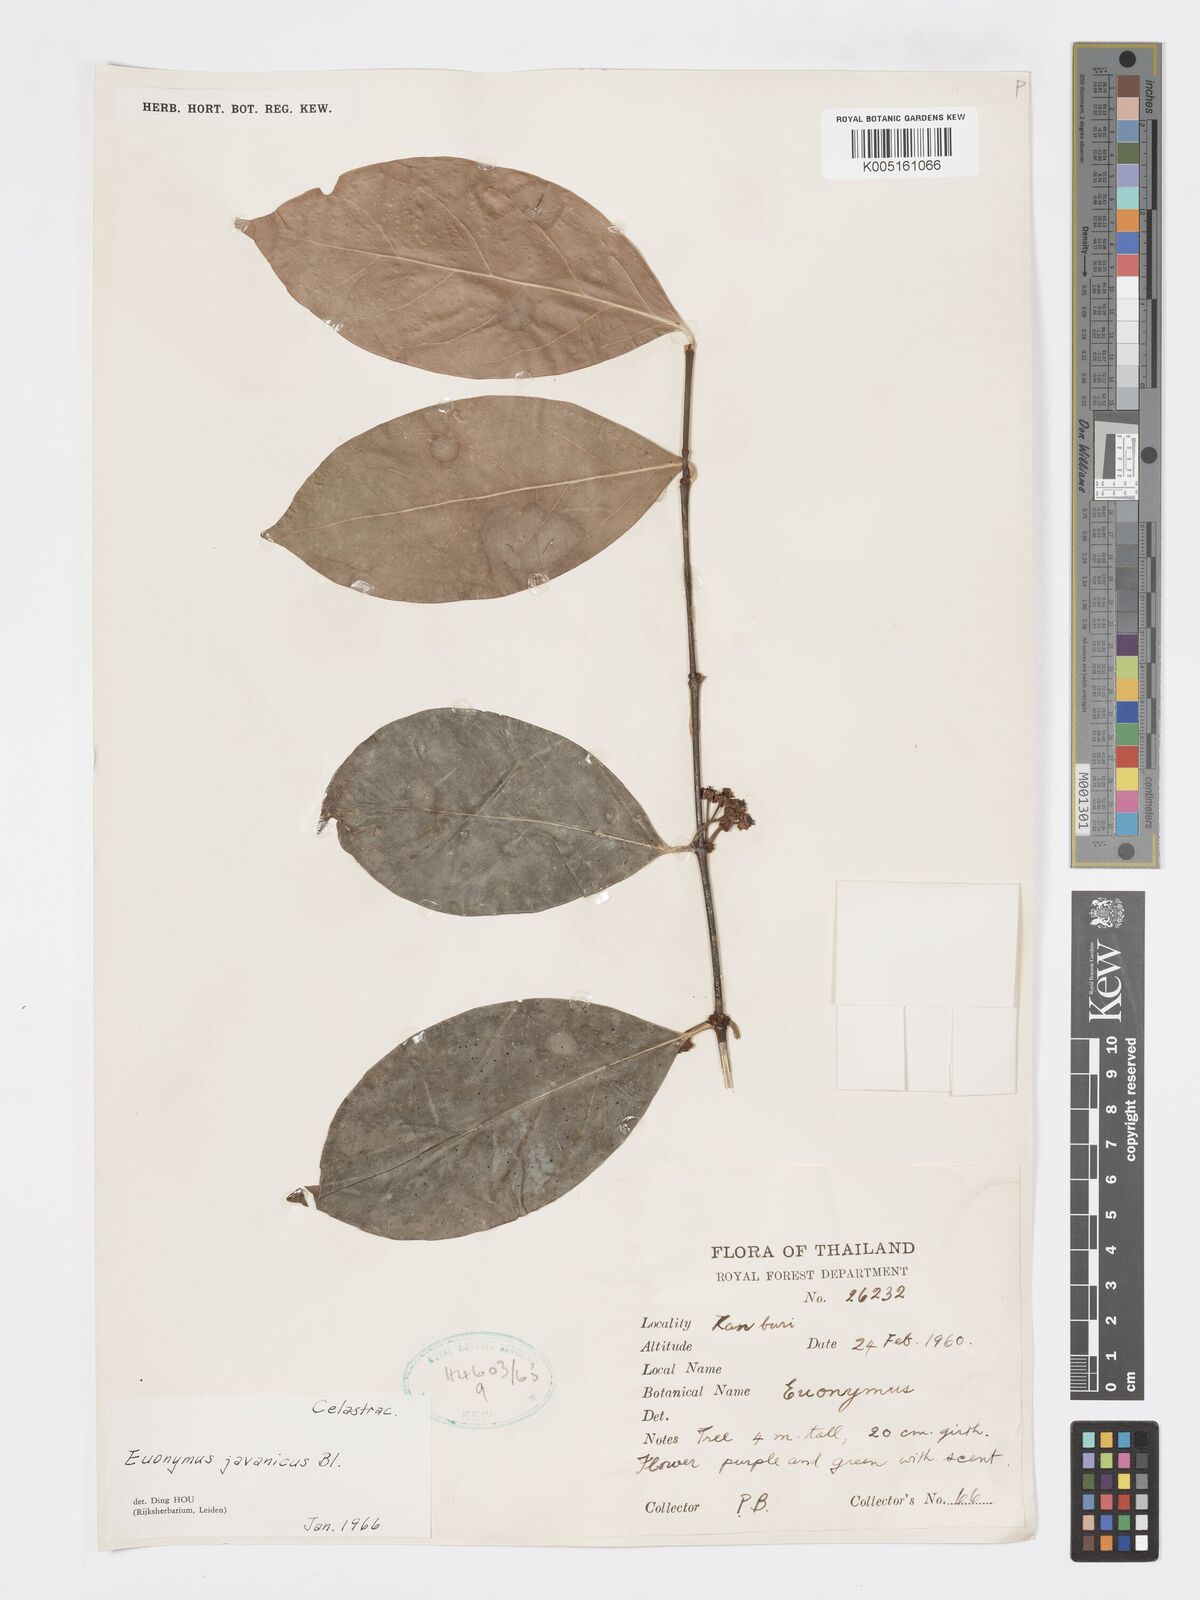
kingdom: Plantae
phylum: Tracheophyta
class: Magnoliopsida
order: Celastrales
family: Celastraceae
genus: Euonymus
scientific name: Euonymus indicus
